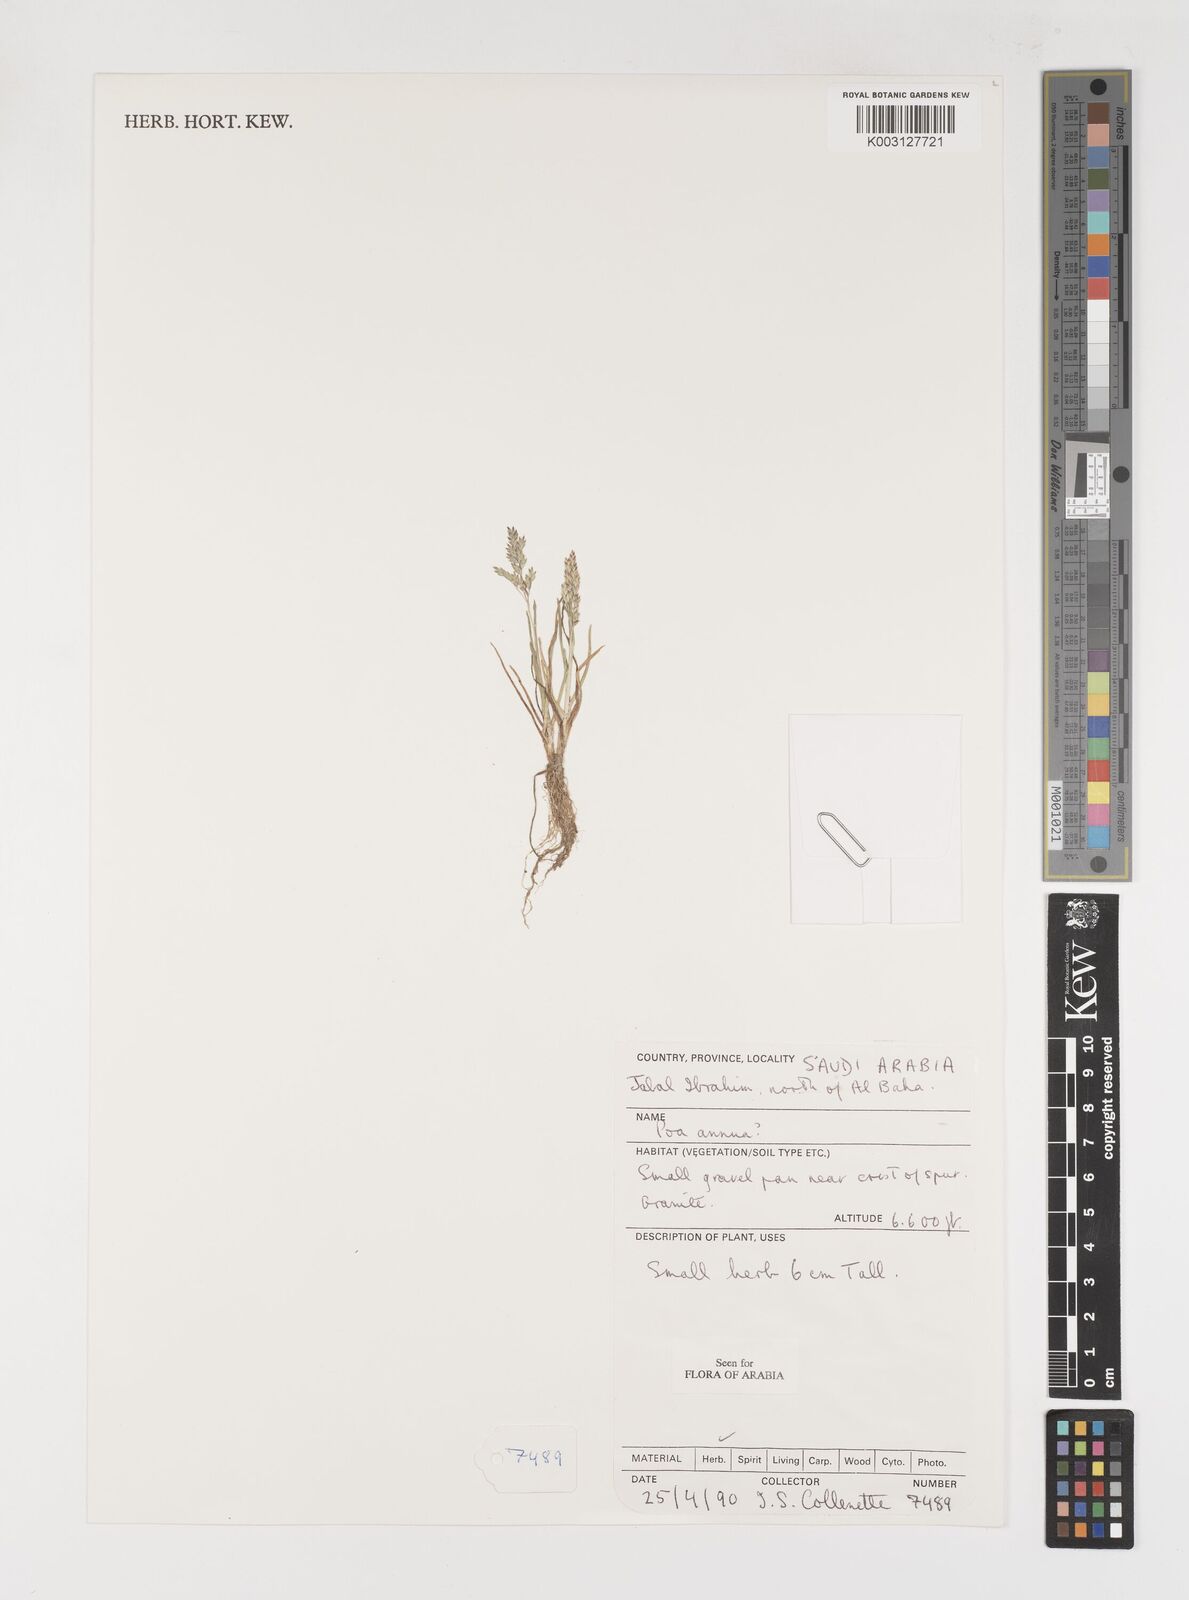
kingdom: Plantae
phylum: Tracheophyta
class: Liliopsida
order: Poales
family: Poaceae
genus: Poa
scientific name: Poa annua
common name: Annual bluegrass
